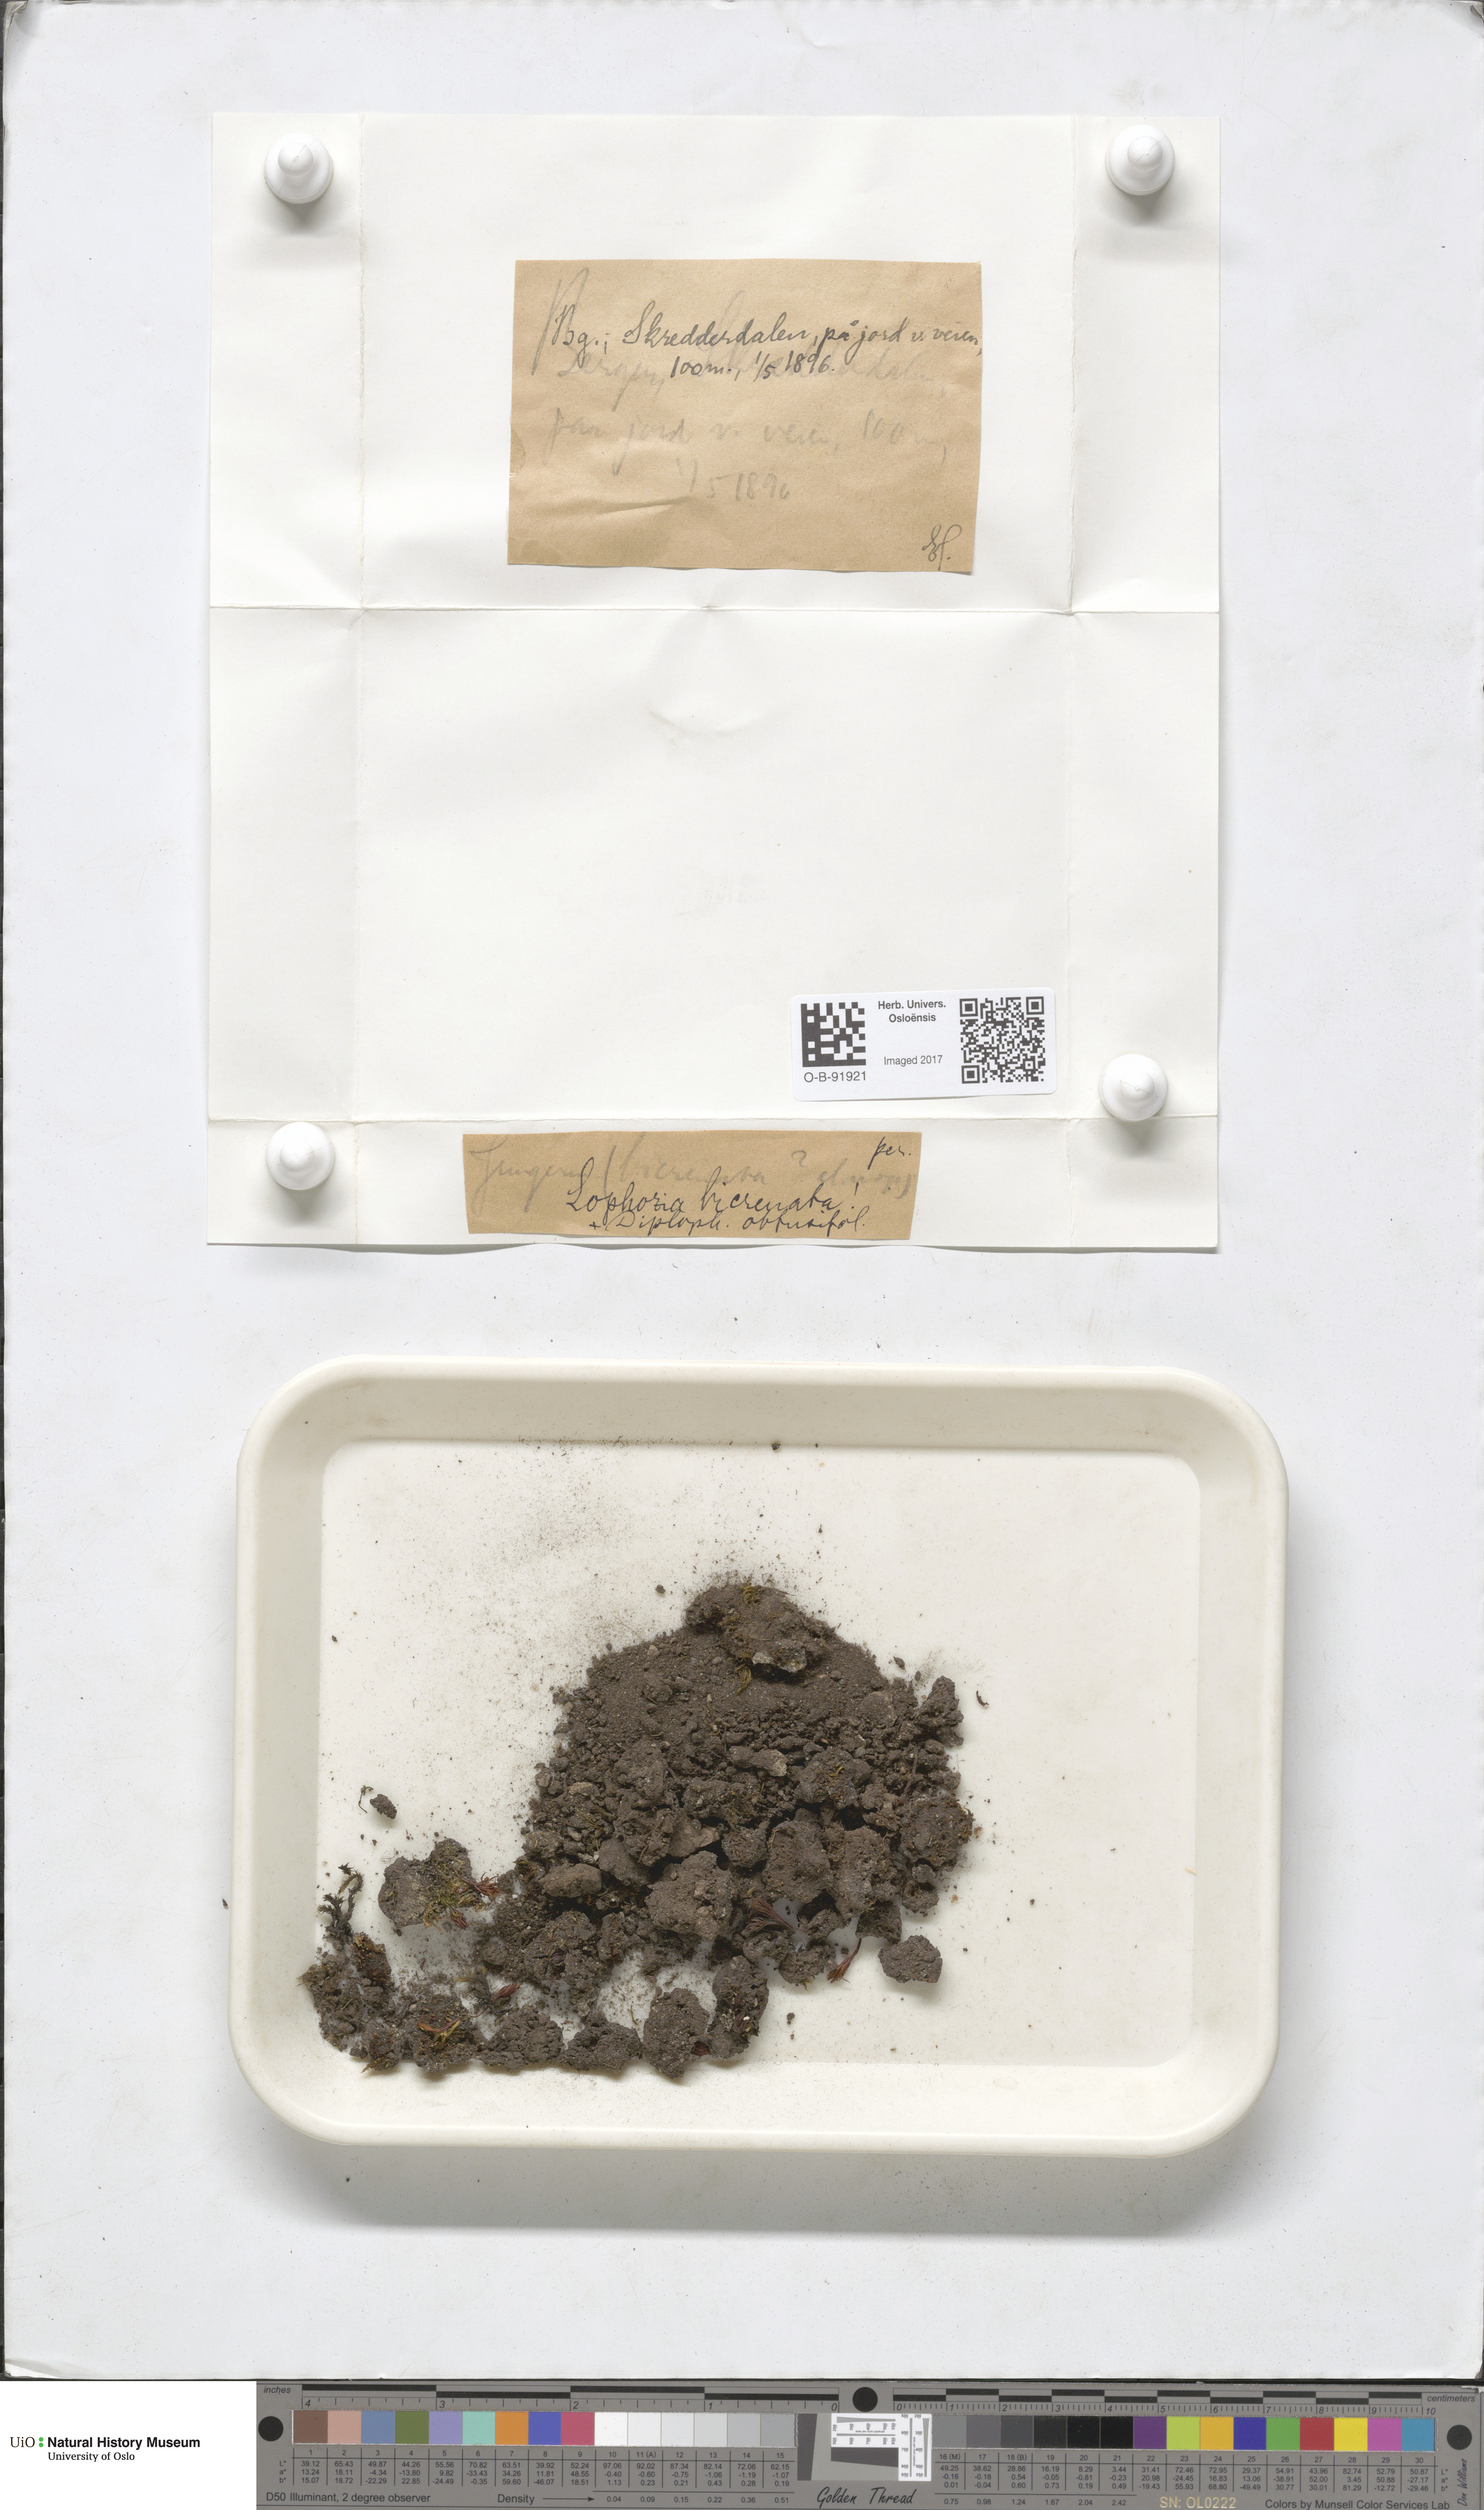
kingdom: Plantae
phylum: Marchantiophyta
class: Jungermanniopsida
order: Jungermanniales
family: Anastrophyllaceae
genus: Isopaches
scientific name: Isopaches bicrenatus
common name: Lesser notchwort
